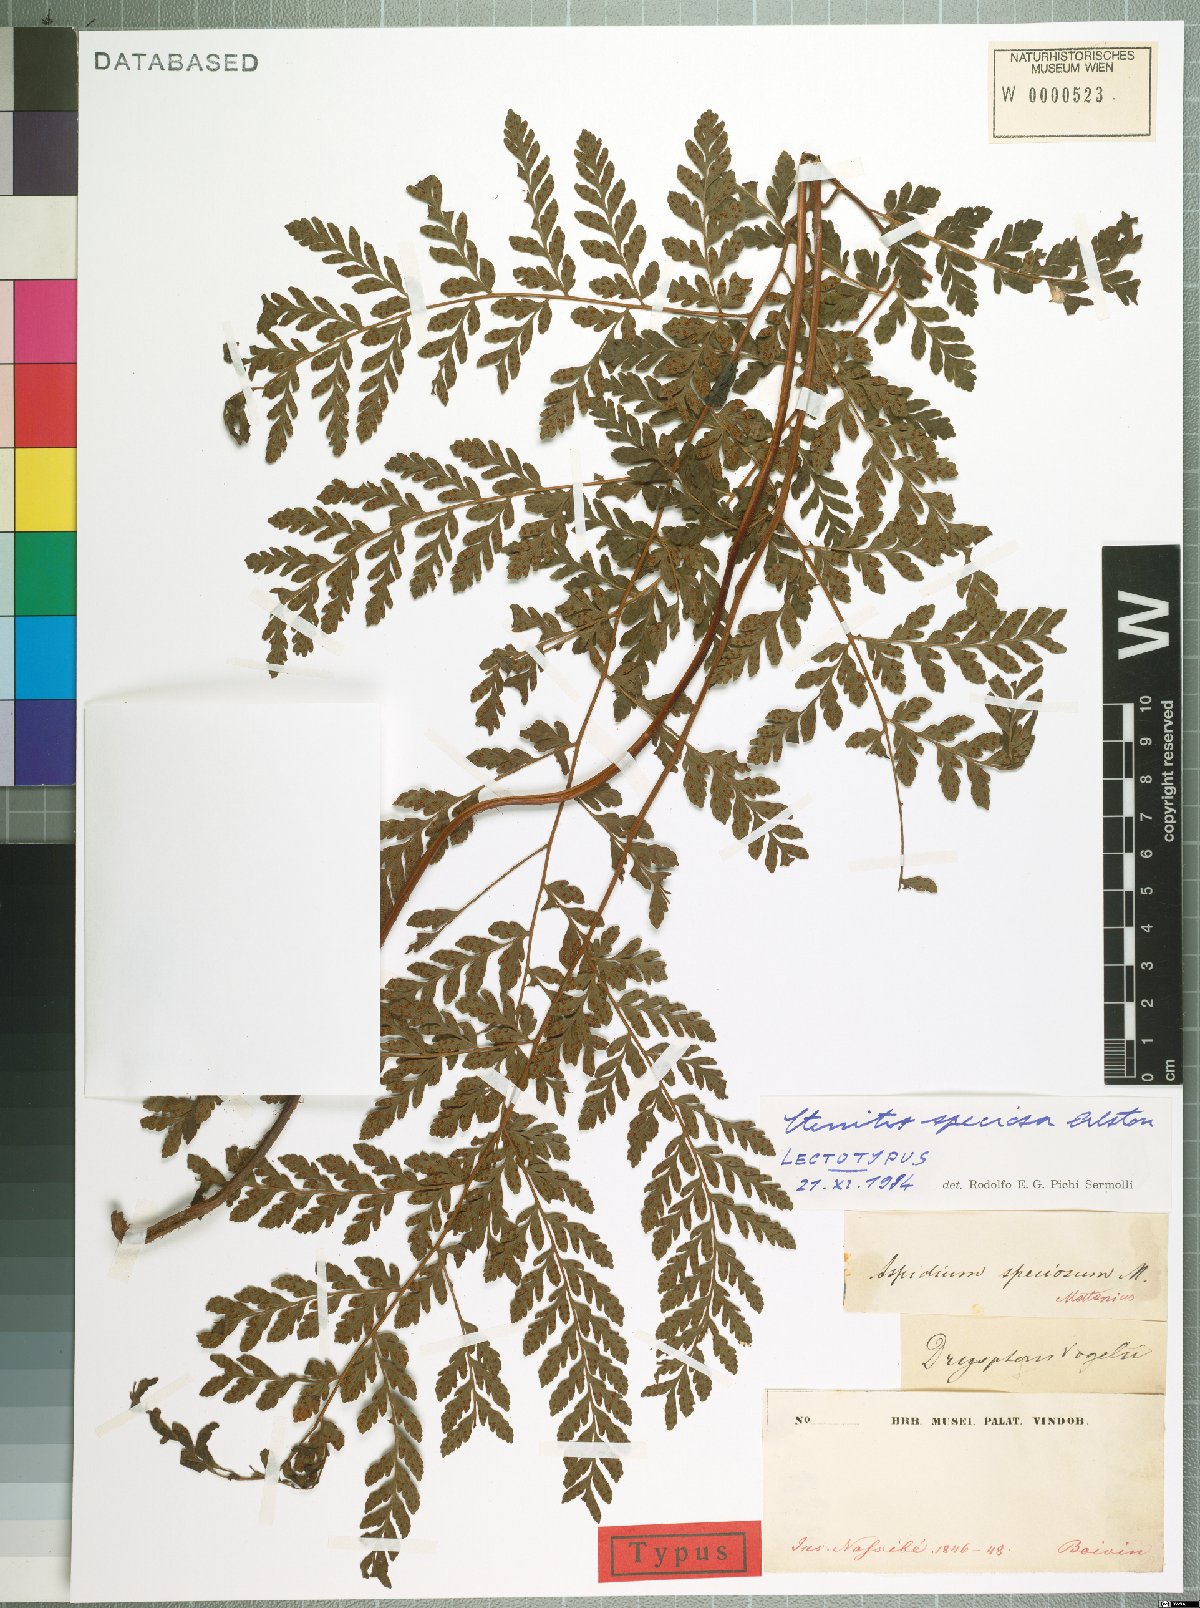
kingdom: Plantae
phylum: Tracheophyta
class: Polypodiopsida
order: Polypodiales
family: Tectariaceae
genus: Triplophyllum
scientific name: Triplophyllum speciosum
